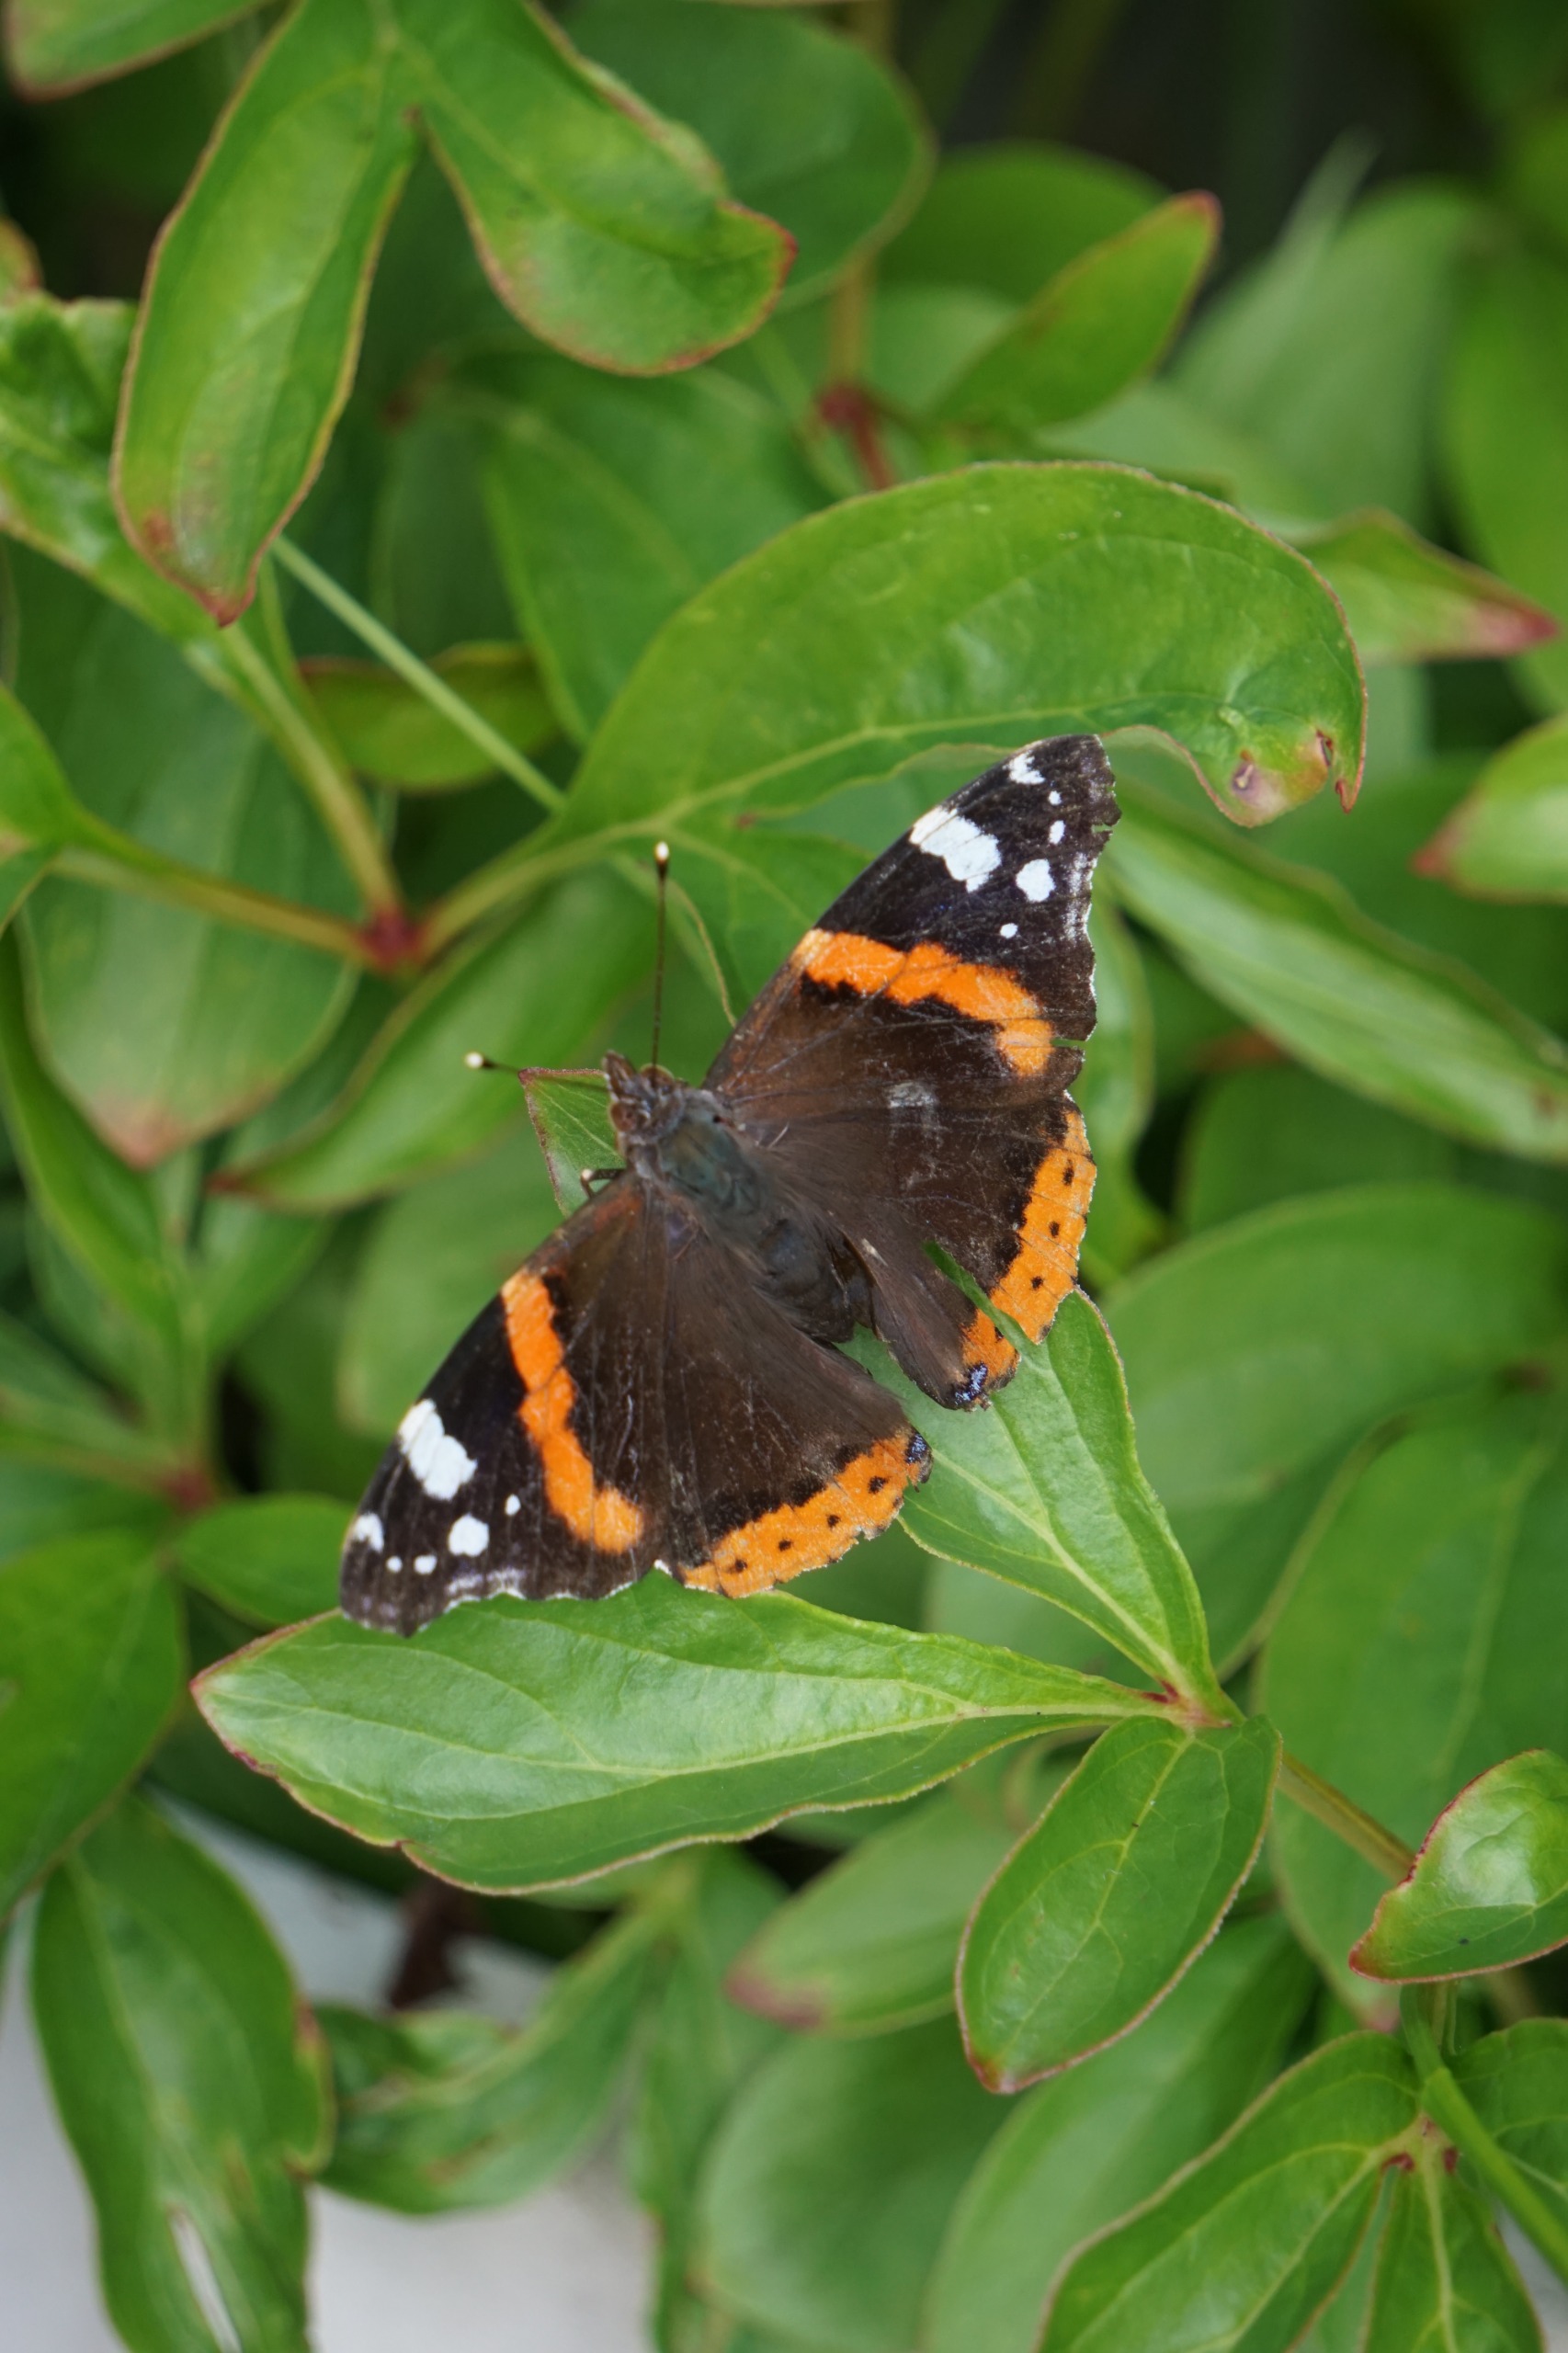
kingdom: Animalia
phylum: Arthropoda
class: Insecta
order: Lepidoptera
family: Nymphalidae
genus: Vanessa
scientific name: Vanessa atalanta
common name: Admiral
